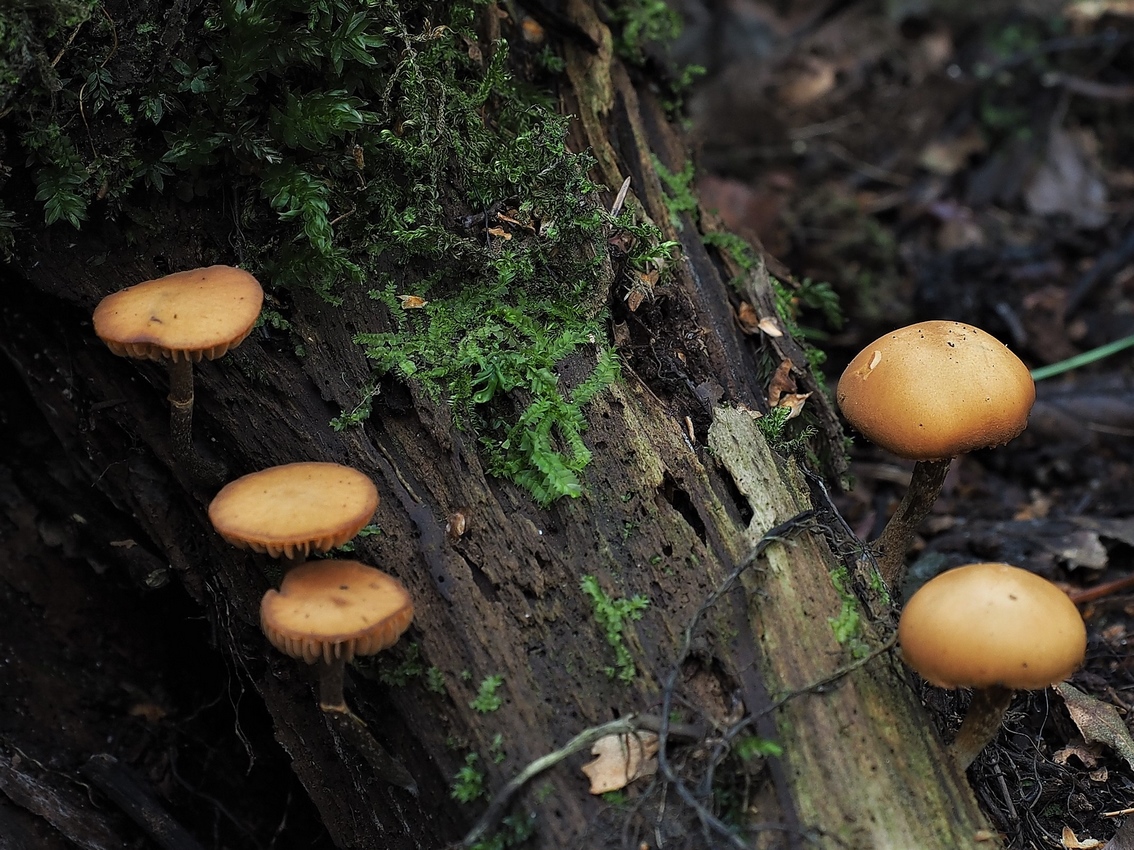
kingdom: Fungi
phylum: Basidiomycota
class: Agaricomycetes
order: Agaricales
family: Hymenogastraceae
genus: Galerina
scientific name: Galerina marginata
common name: randbæltet hjelmhat
